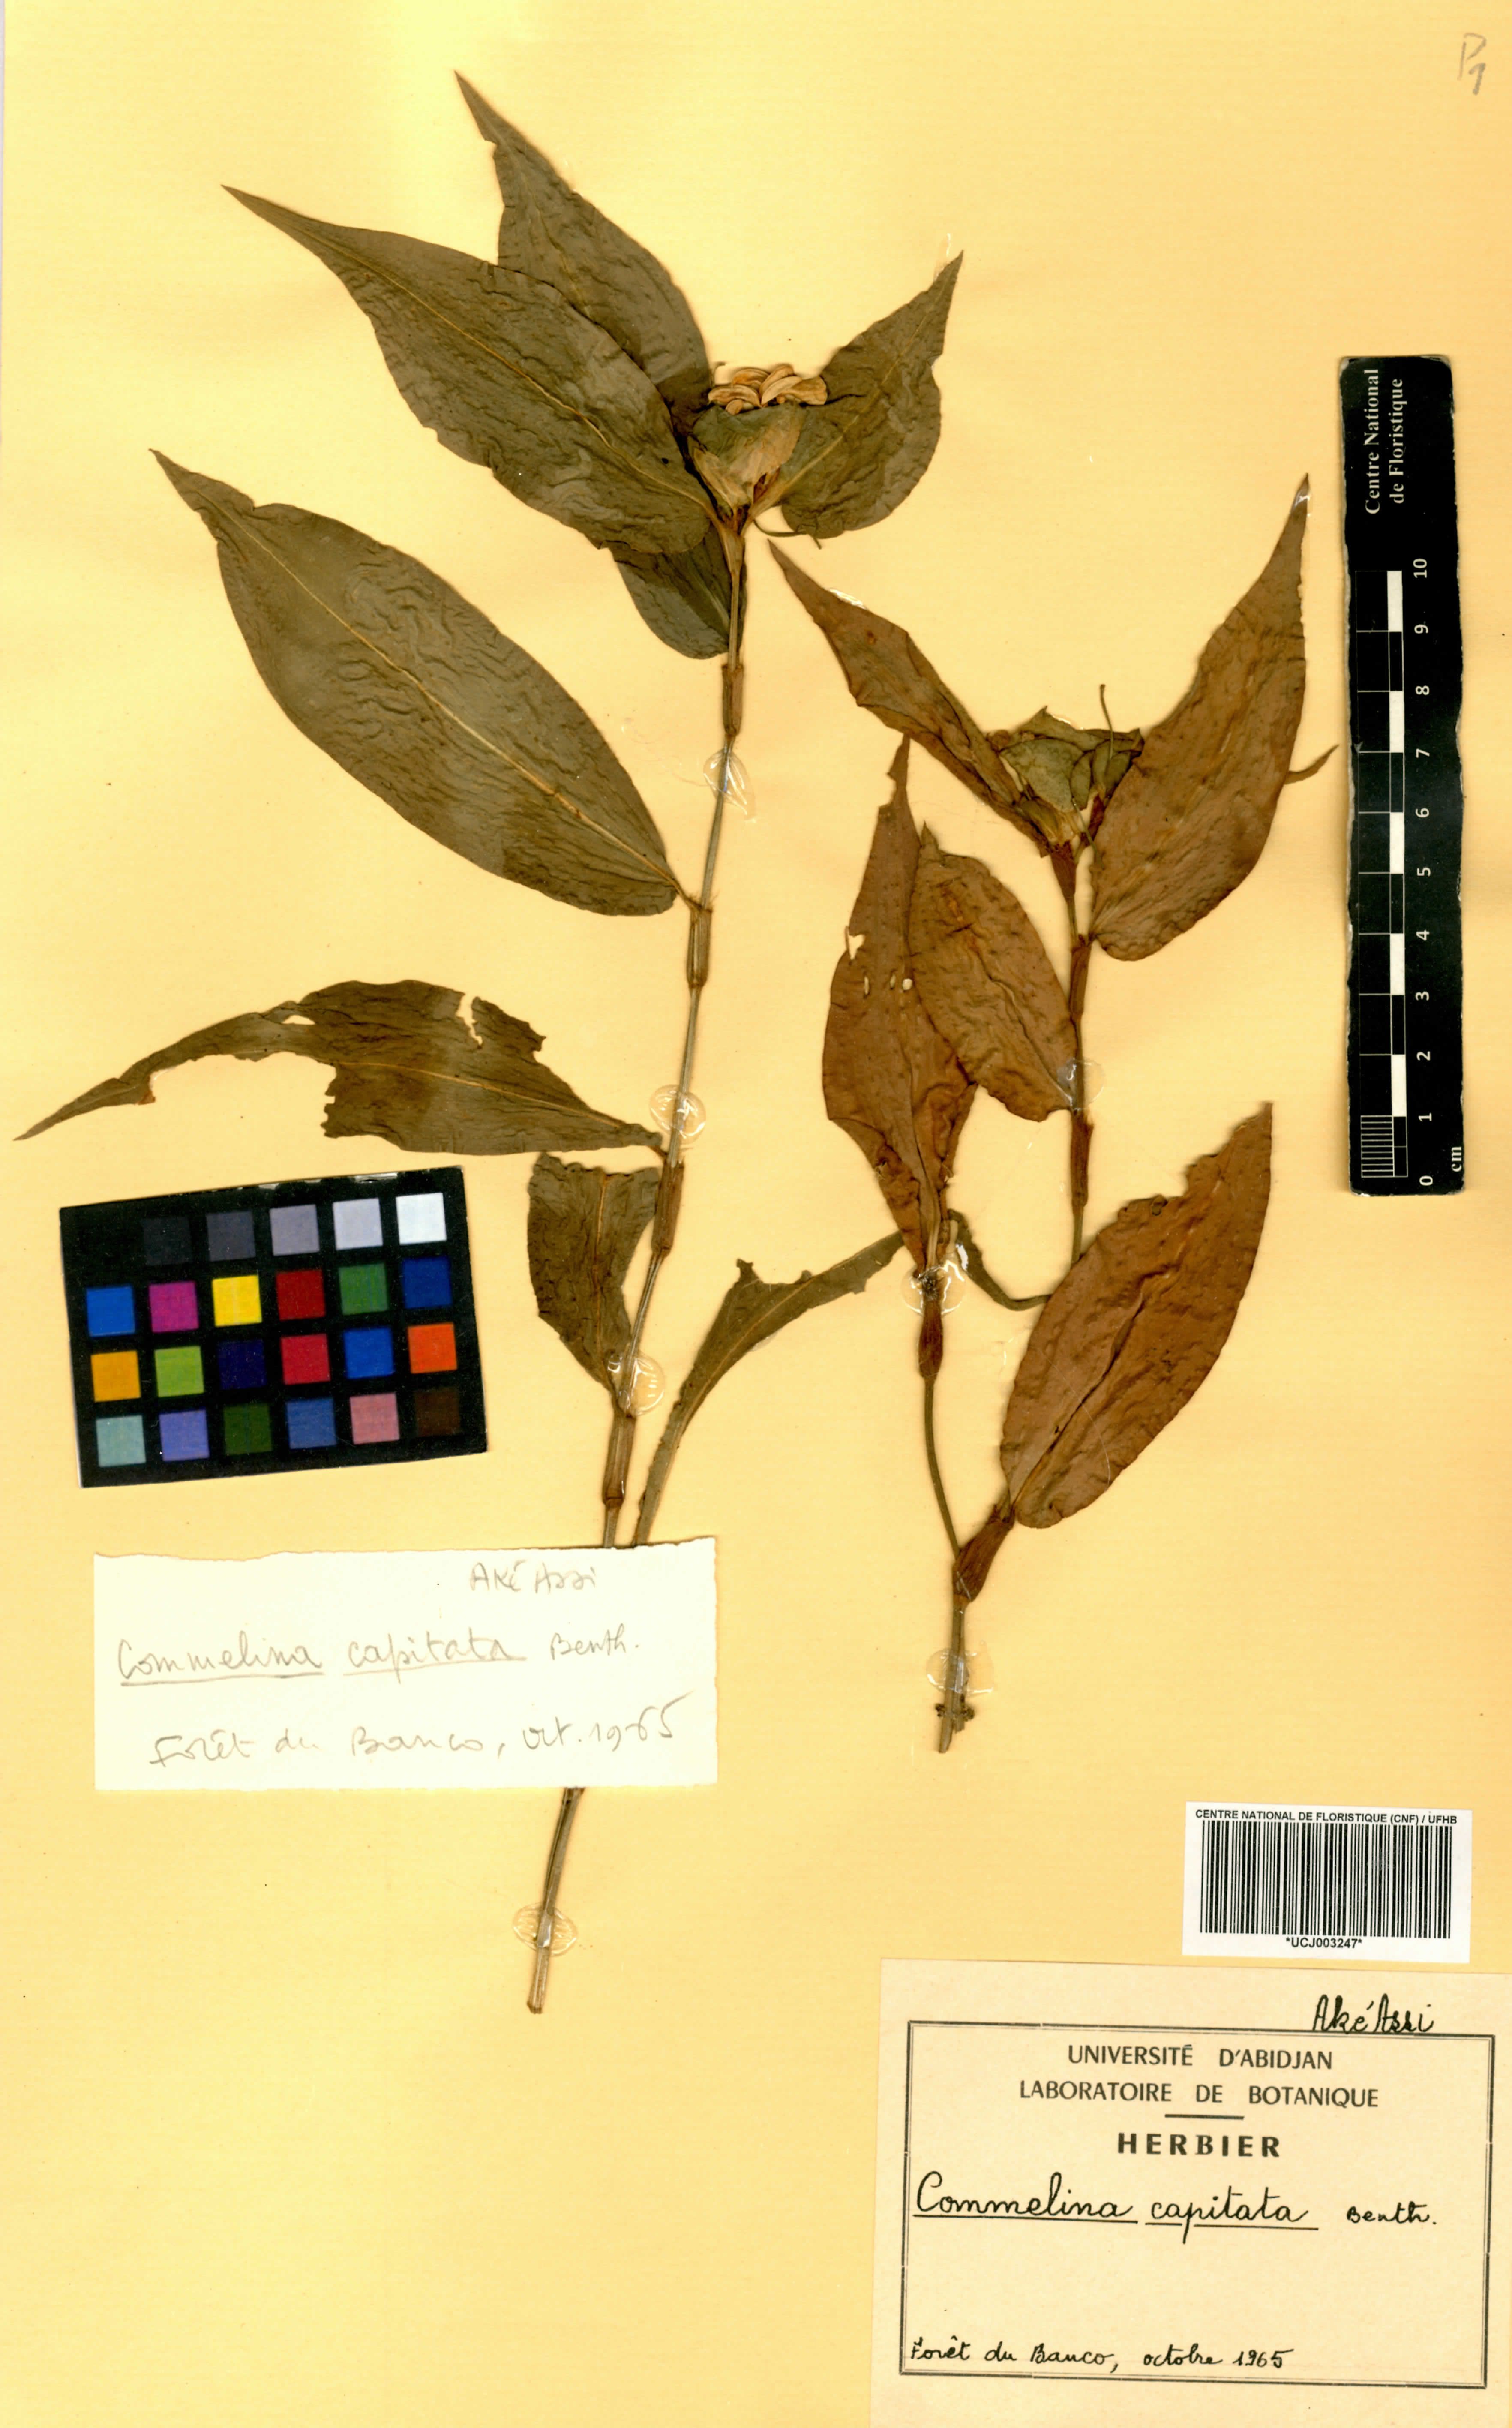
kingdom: Plantae
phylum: Tracheophyta
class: Liliopsida
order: Commelinales
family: Commelinaceae
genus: Commelina
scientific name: Commelina capitata
